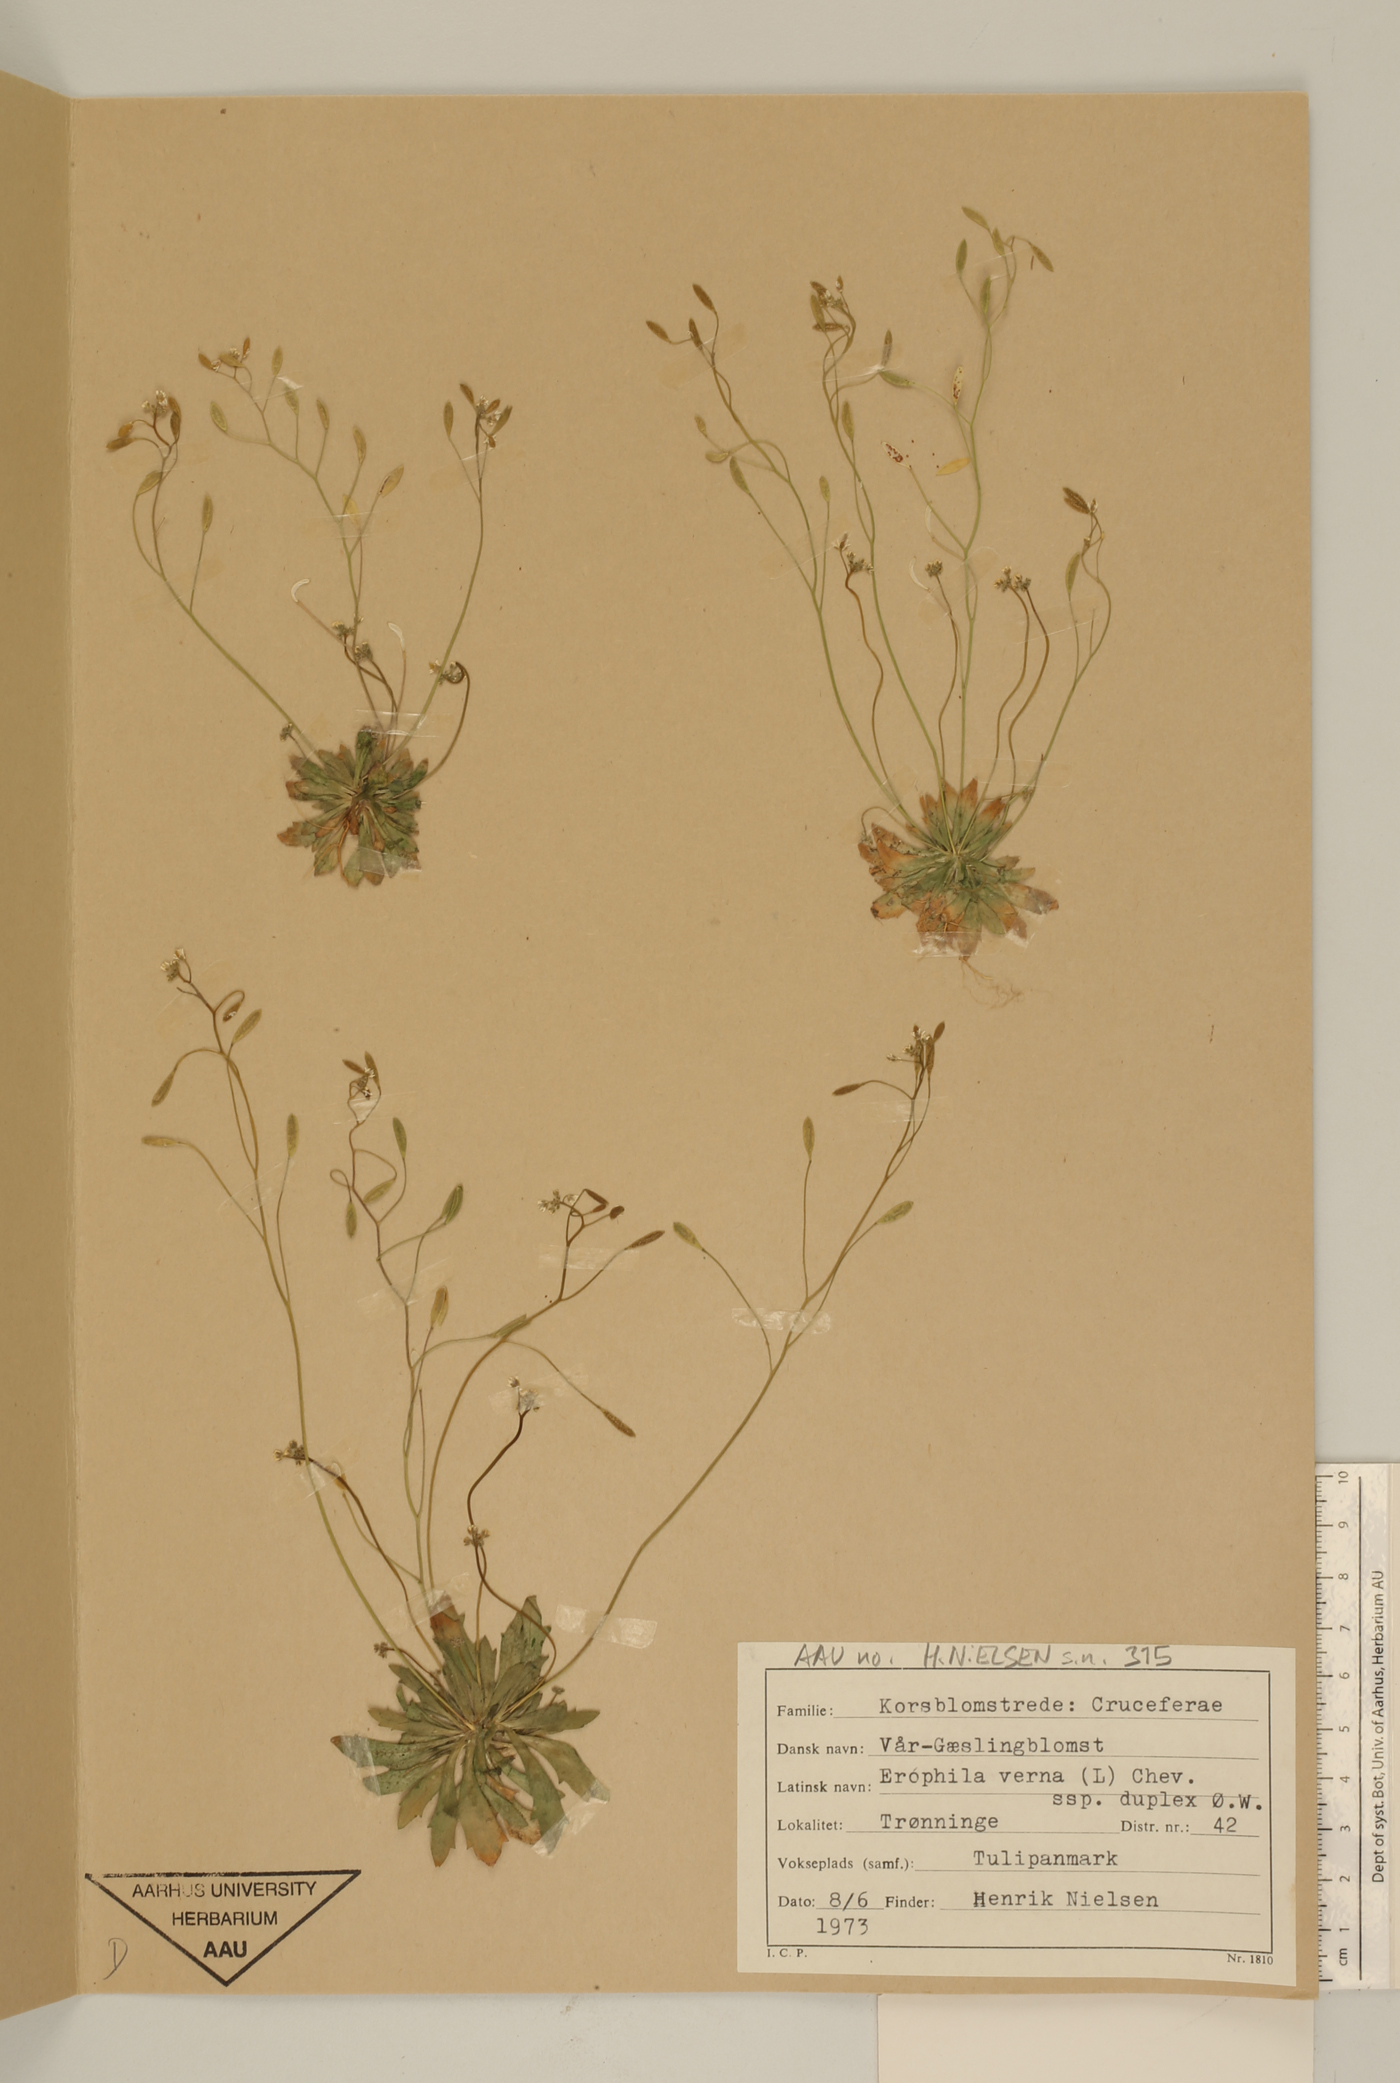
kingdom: Plantae
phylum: Tracheophyta
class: Magnoliopsida
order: Brassicales
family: Brassicaceae
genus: Draba
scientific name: Draba verna
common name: Spring draba
